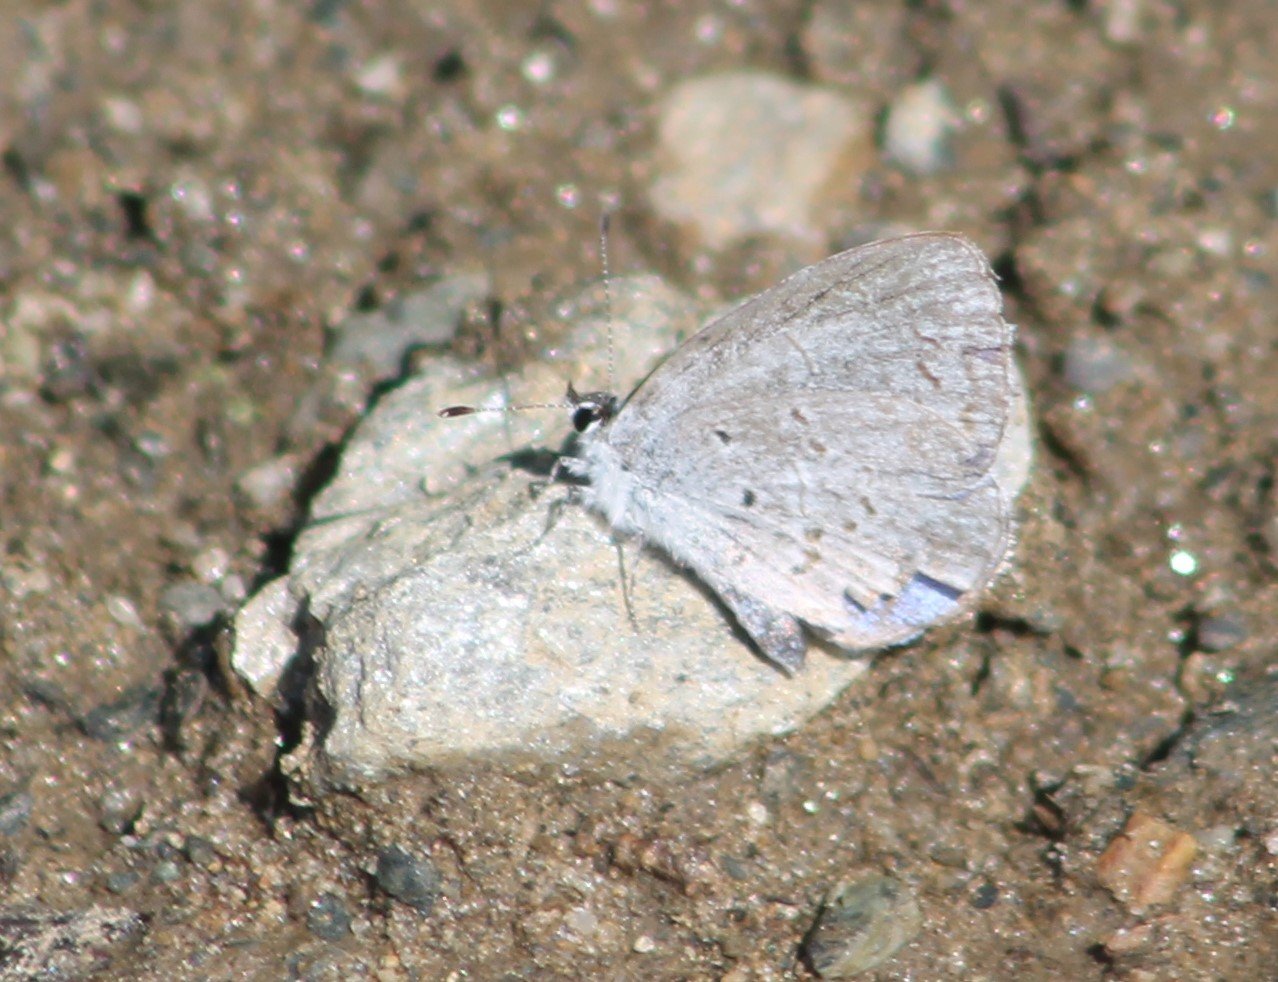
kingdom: Animalia
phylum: Arthropoda
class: Insecta
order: Lepidoptera
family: Lycaenidae
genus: Celastrina
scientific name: Celastrina lucia
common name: Northern Spring Azure
